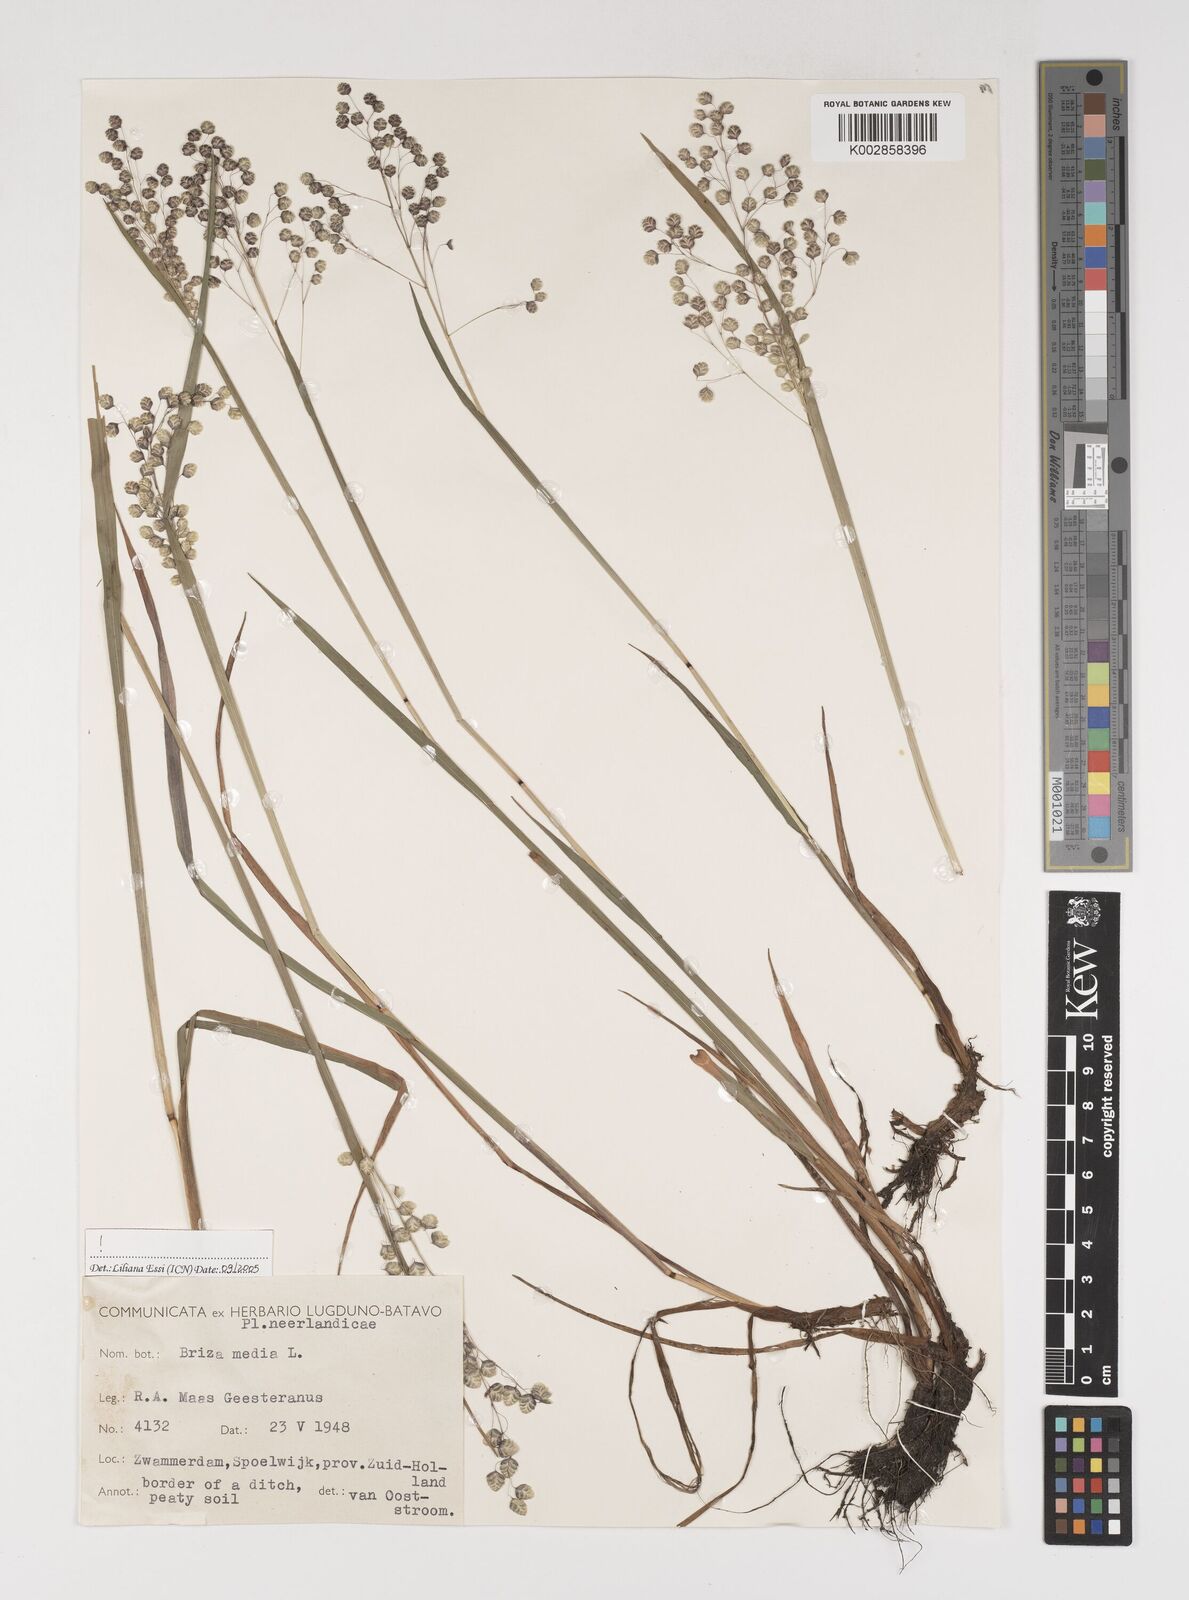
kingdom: Plantae
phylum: Tracheophyta
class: Liliopsida
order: Poales
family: Poaceae
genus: Briza
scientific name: Briza media
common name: Quaking grass
